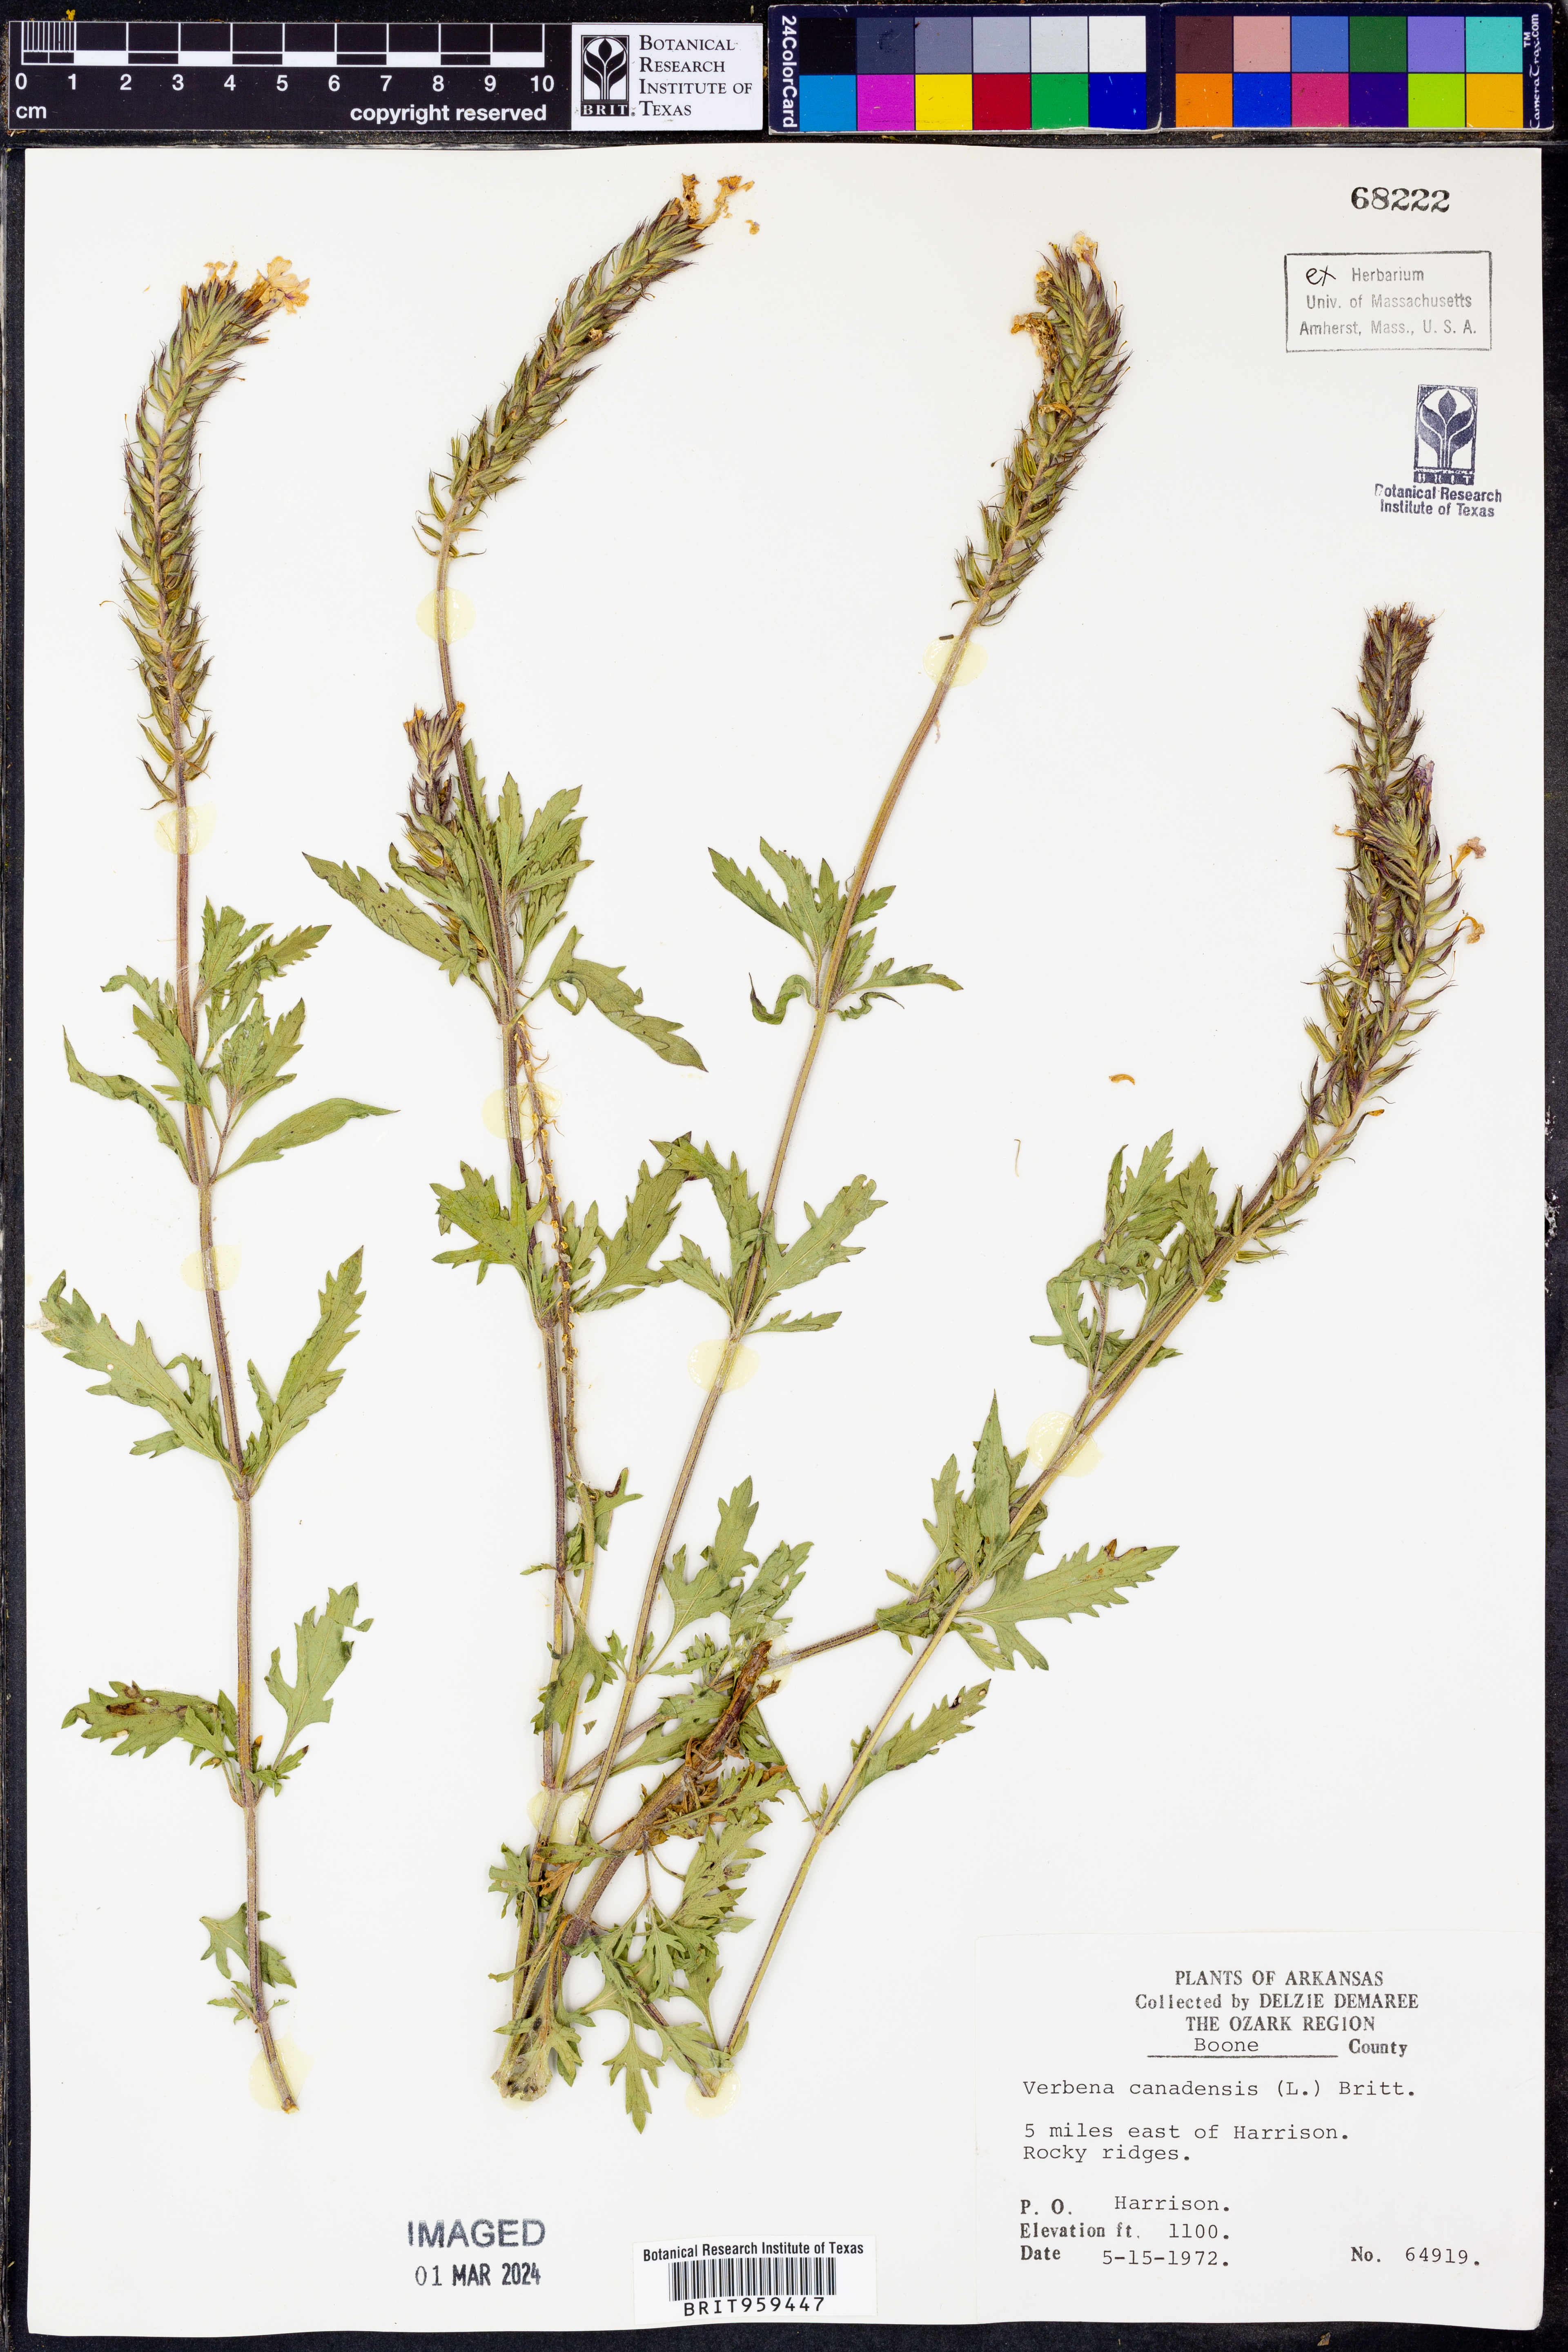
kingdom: Plantae
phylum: Tracheophyta
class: Magnoliopsida
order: Lamiales
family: Verbenaceae
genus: Verbena
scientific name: Verbena canadensis
